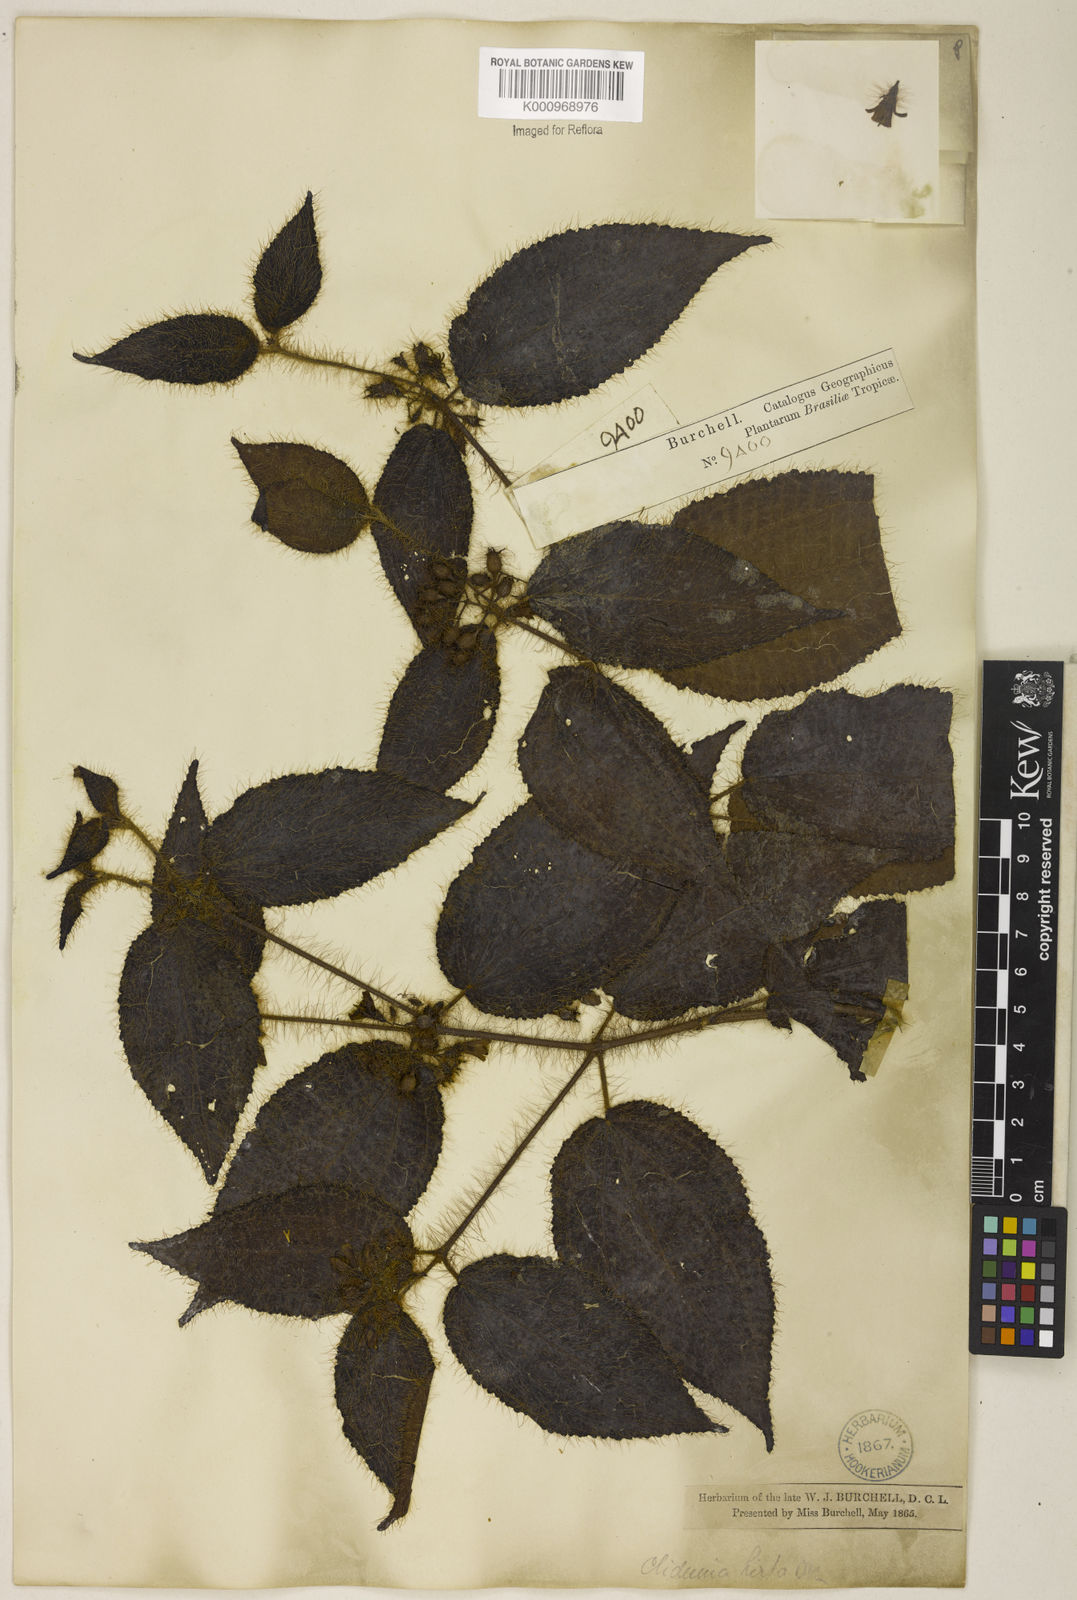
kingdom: Plantae
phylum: Tracheophyta
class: Magnoliopsida
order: Myrtales
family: Melastomataceae
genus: Miconia
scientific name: Miconia crenata
